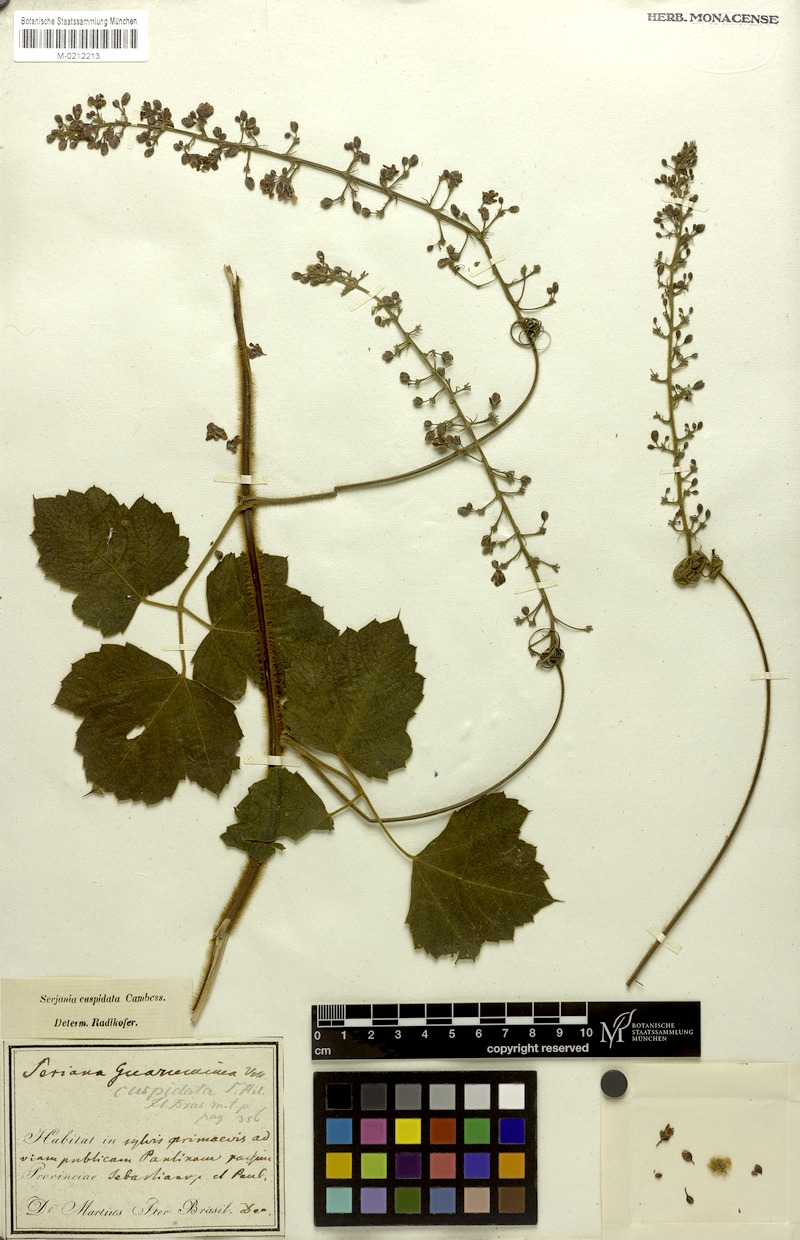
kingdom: Plantae
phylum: Tracheophyta
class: Magnoliopsida
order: Sapindales
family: Sapindaceae
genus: Serjania
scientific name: Serjania ferruginea
